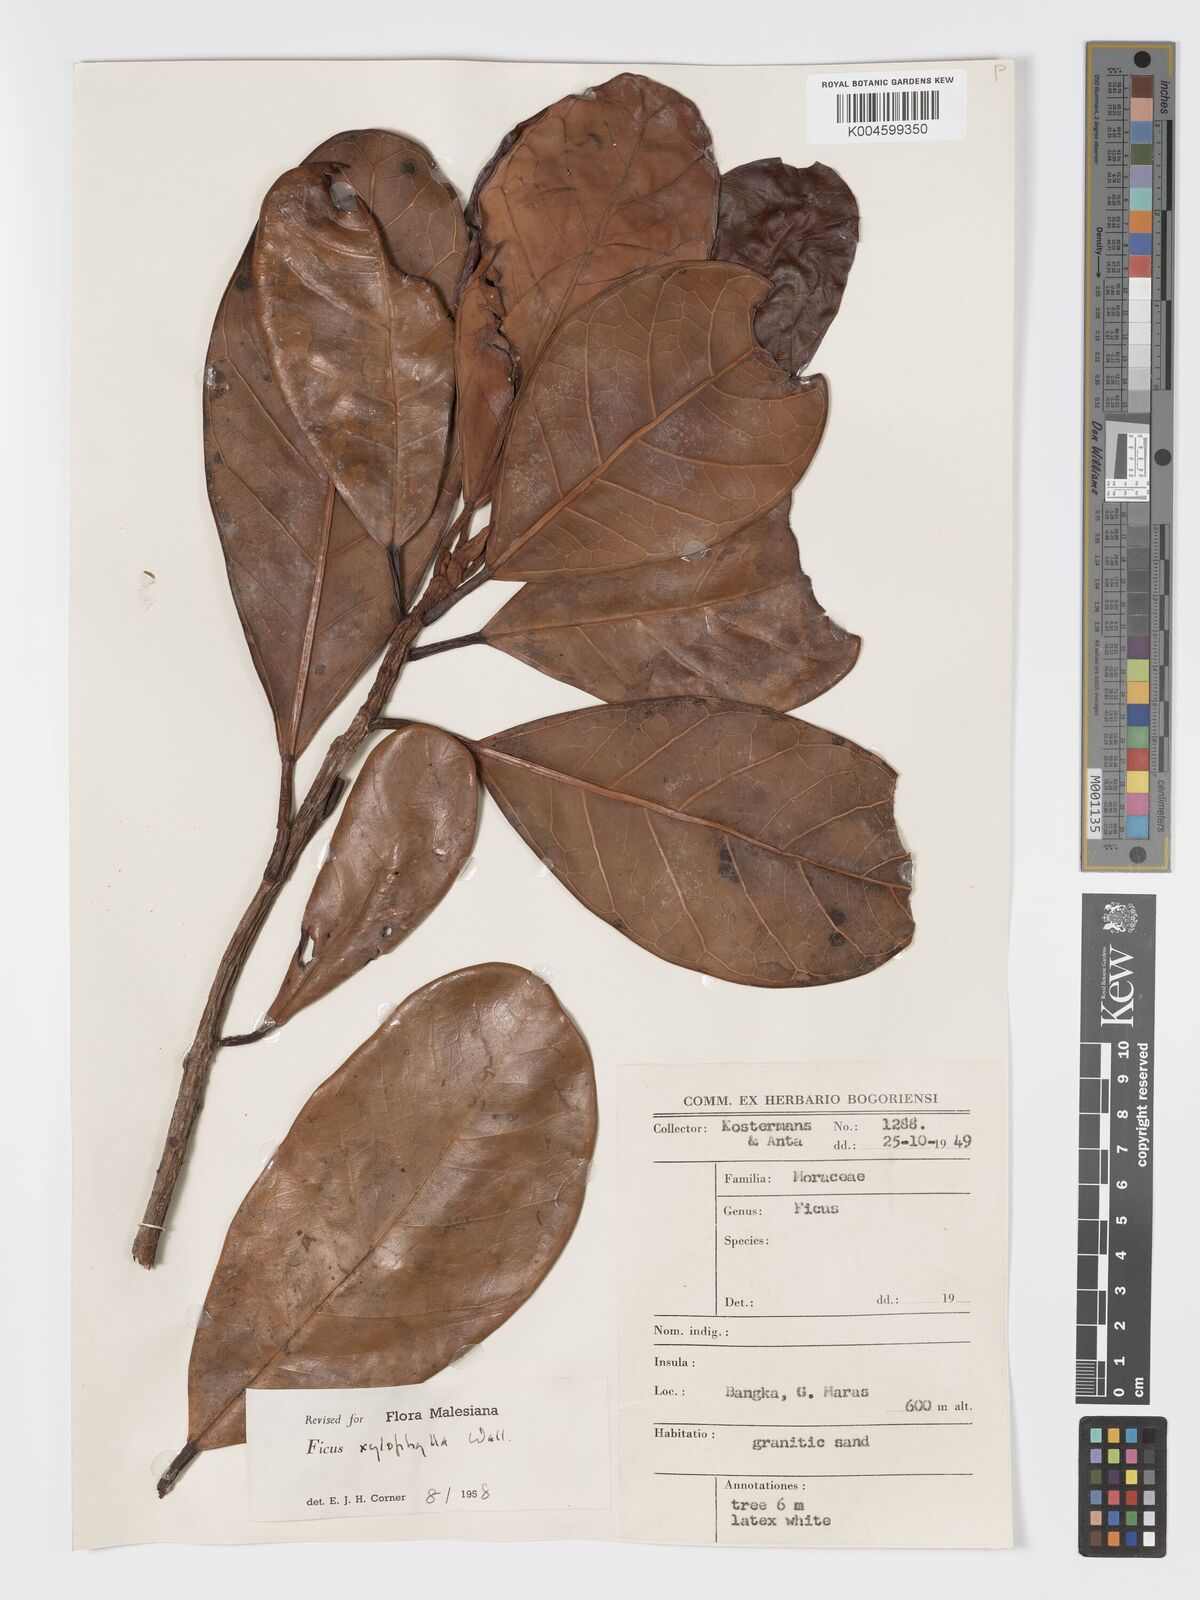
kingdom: Plantae
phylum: Tracheophyta
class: Magnoliopsida
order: Rosales
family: Moraceae
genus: Ficus
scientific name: Ficus xylophylla
